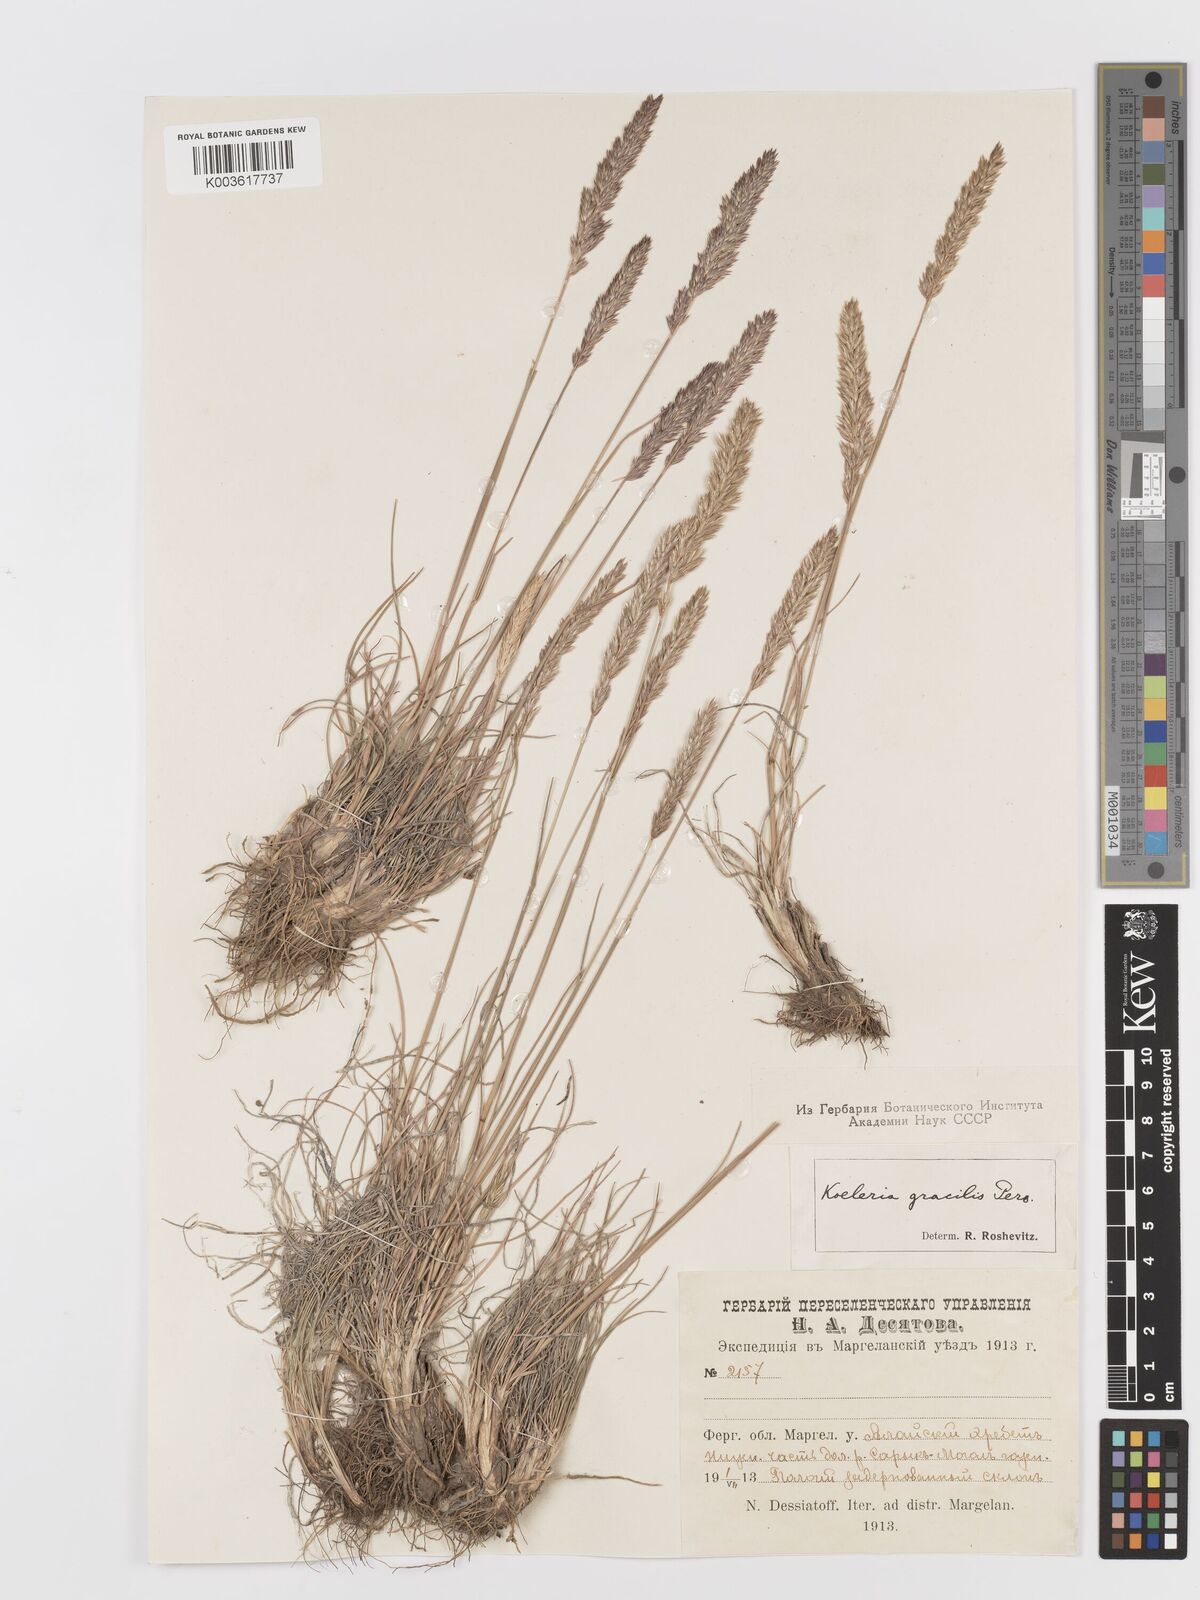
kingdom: Plantae
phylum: Tracheophyta
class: Liliopsida
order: Poales
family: Poaceae
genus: Koeleria
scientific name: Koeleria splendens
